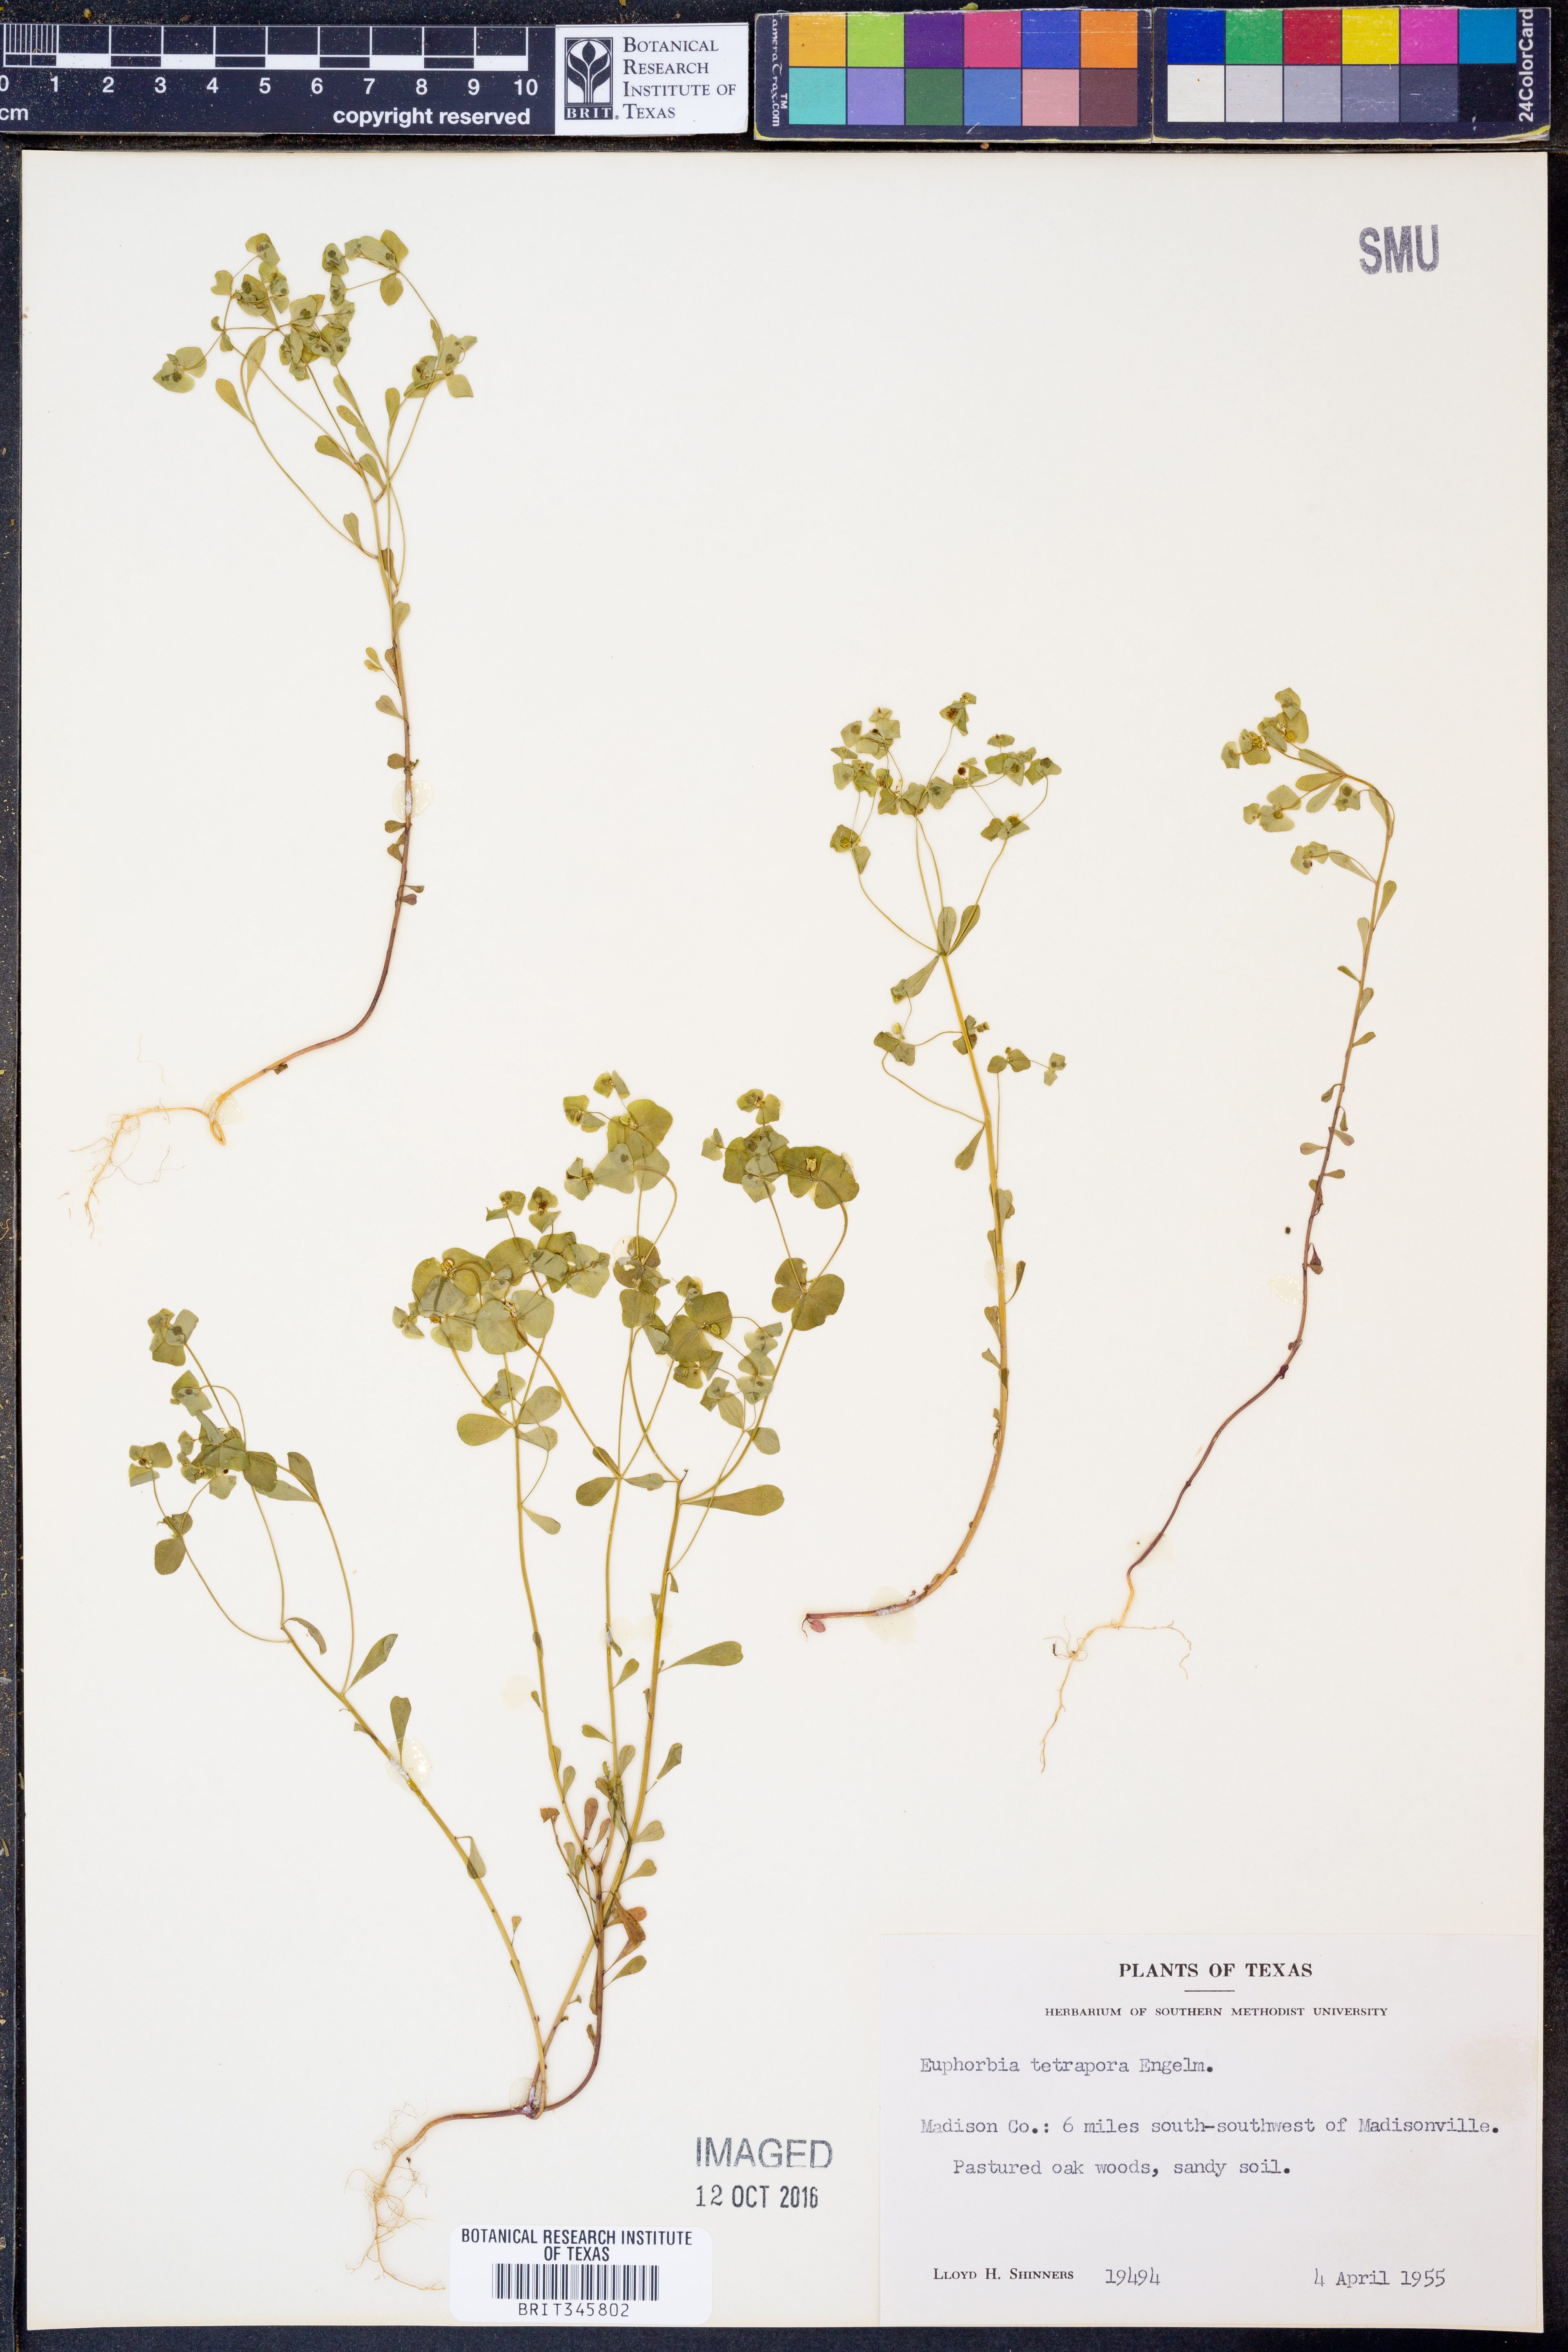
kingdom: Plantae
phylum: Tracheophyta
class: Magnoliopsida
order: Malpighiales
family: Euphorbiaceae
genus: Euphorbia
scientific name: Euphorbia tetrapora
